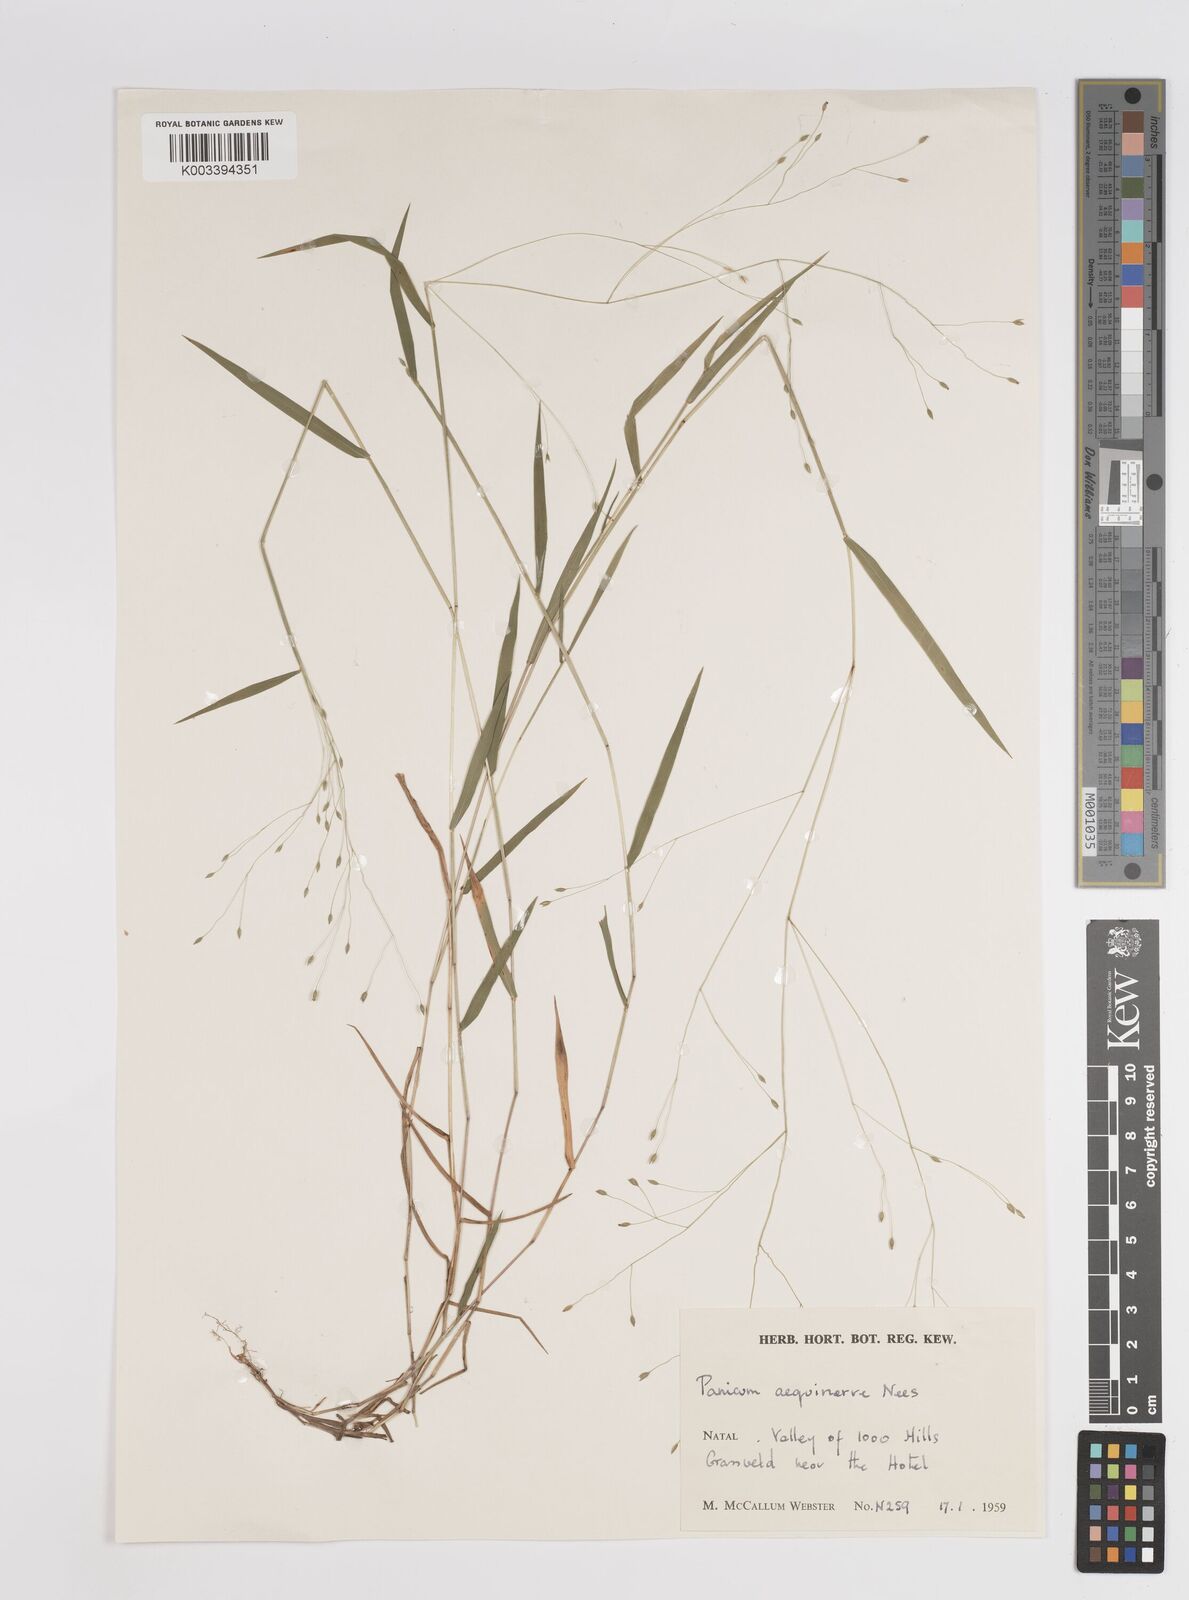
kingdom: Plantae
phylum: Tracheophyta
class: Liliopsida
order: Poales
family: Poaceae
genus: Panicum
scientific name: Panicum aequinerve
